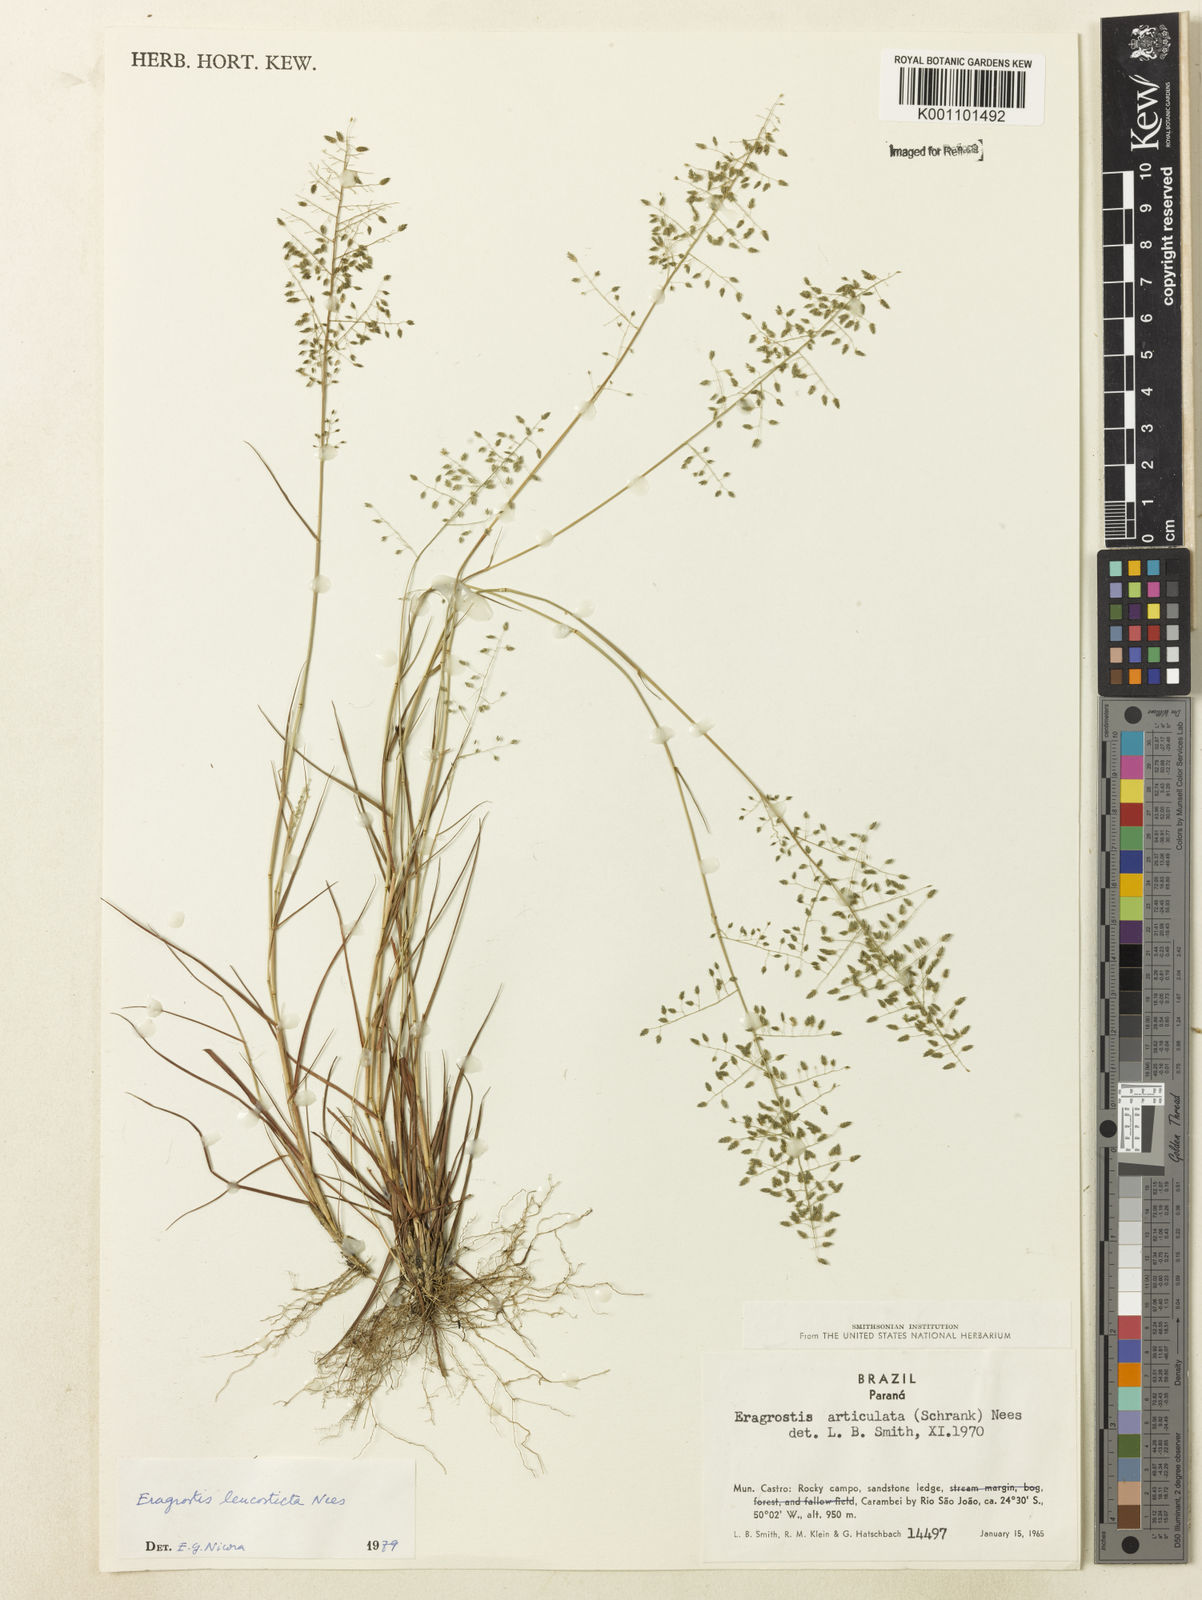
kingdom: Plantae
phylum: Tracheophyta
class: Liliopsida
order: Poales
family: Poaceae
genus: Eragrostis
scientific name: Eragrostis
